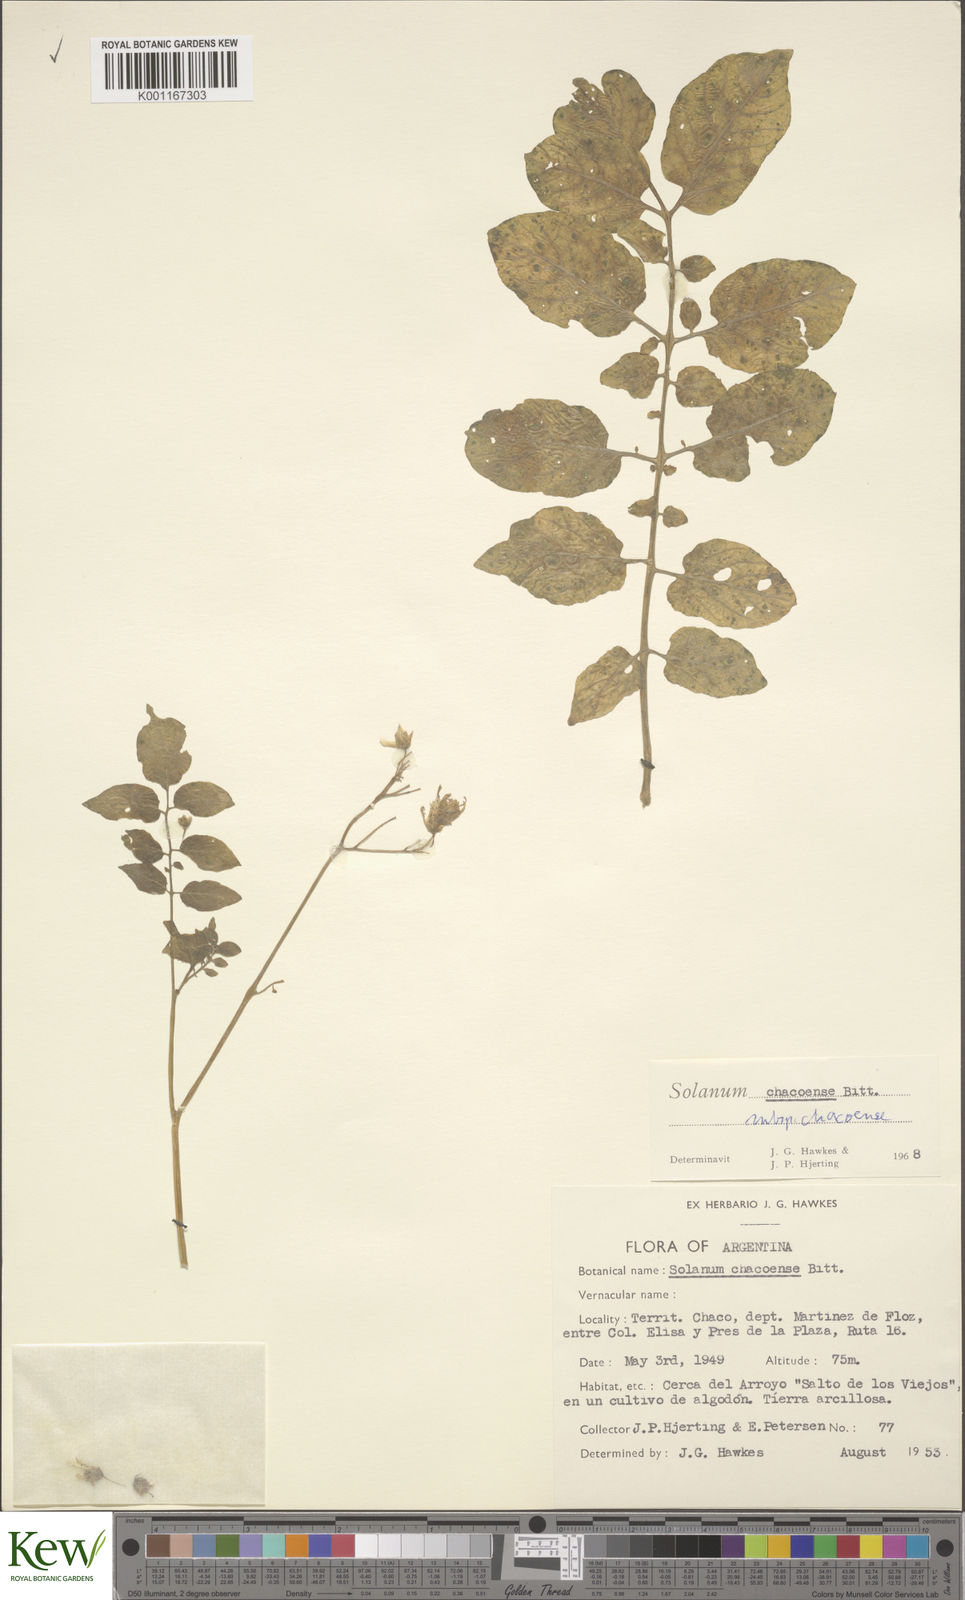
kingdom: Plantae
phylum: Tracheophyta
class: Magnoliopsida
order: Solanales
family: Solanaceae
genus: Solanum
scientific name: Solanum chacoense
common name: Chaco potato
